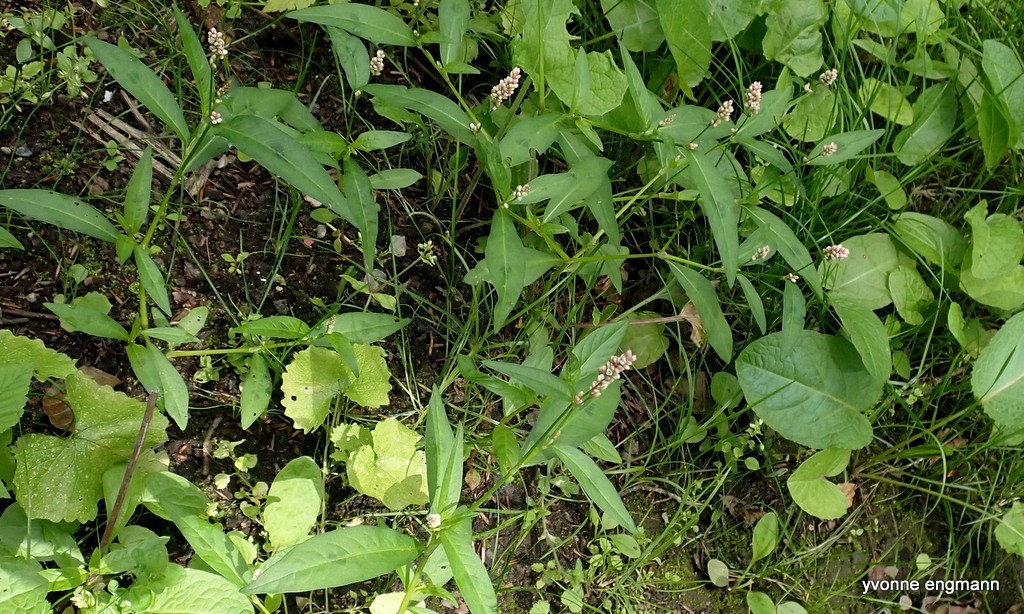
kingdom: Plantae
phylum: Tracheophyta
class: Magnoliopsida
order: Caryophyllales
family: Polygonaceae
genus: Persicaria
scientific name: Persicaria maculosa
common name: Fersken-pileurt
